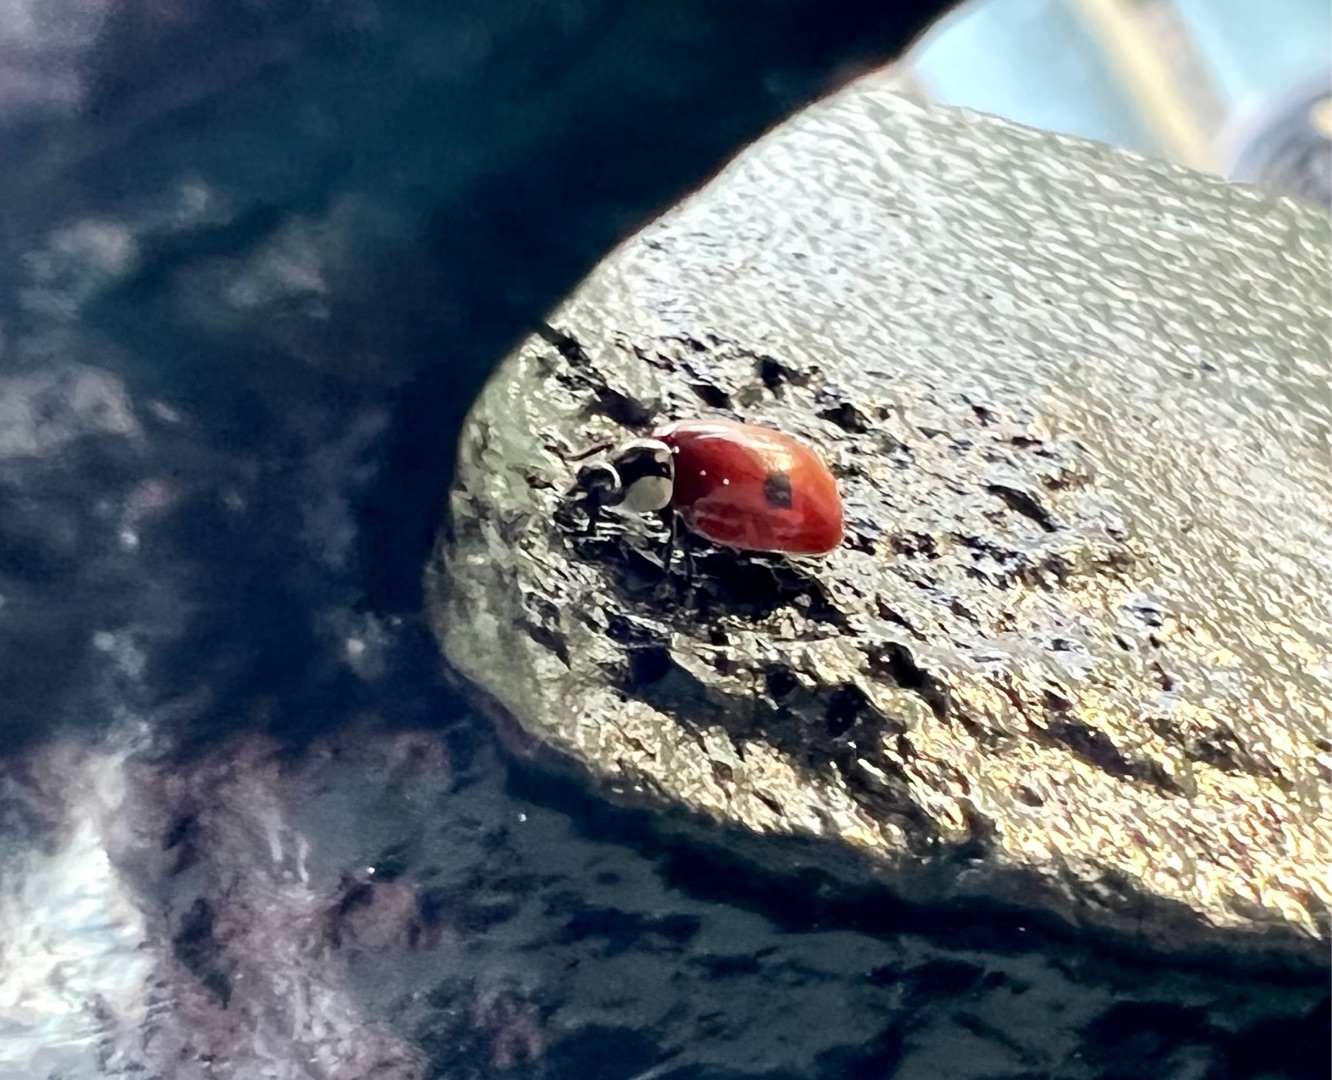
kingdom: Animalia
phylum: Arthropoda
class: Insecta
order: Coleoptera
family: Coccinellidae
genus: Adalia
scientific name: Adalia bipunctata
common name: Toplettet mariehøne
